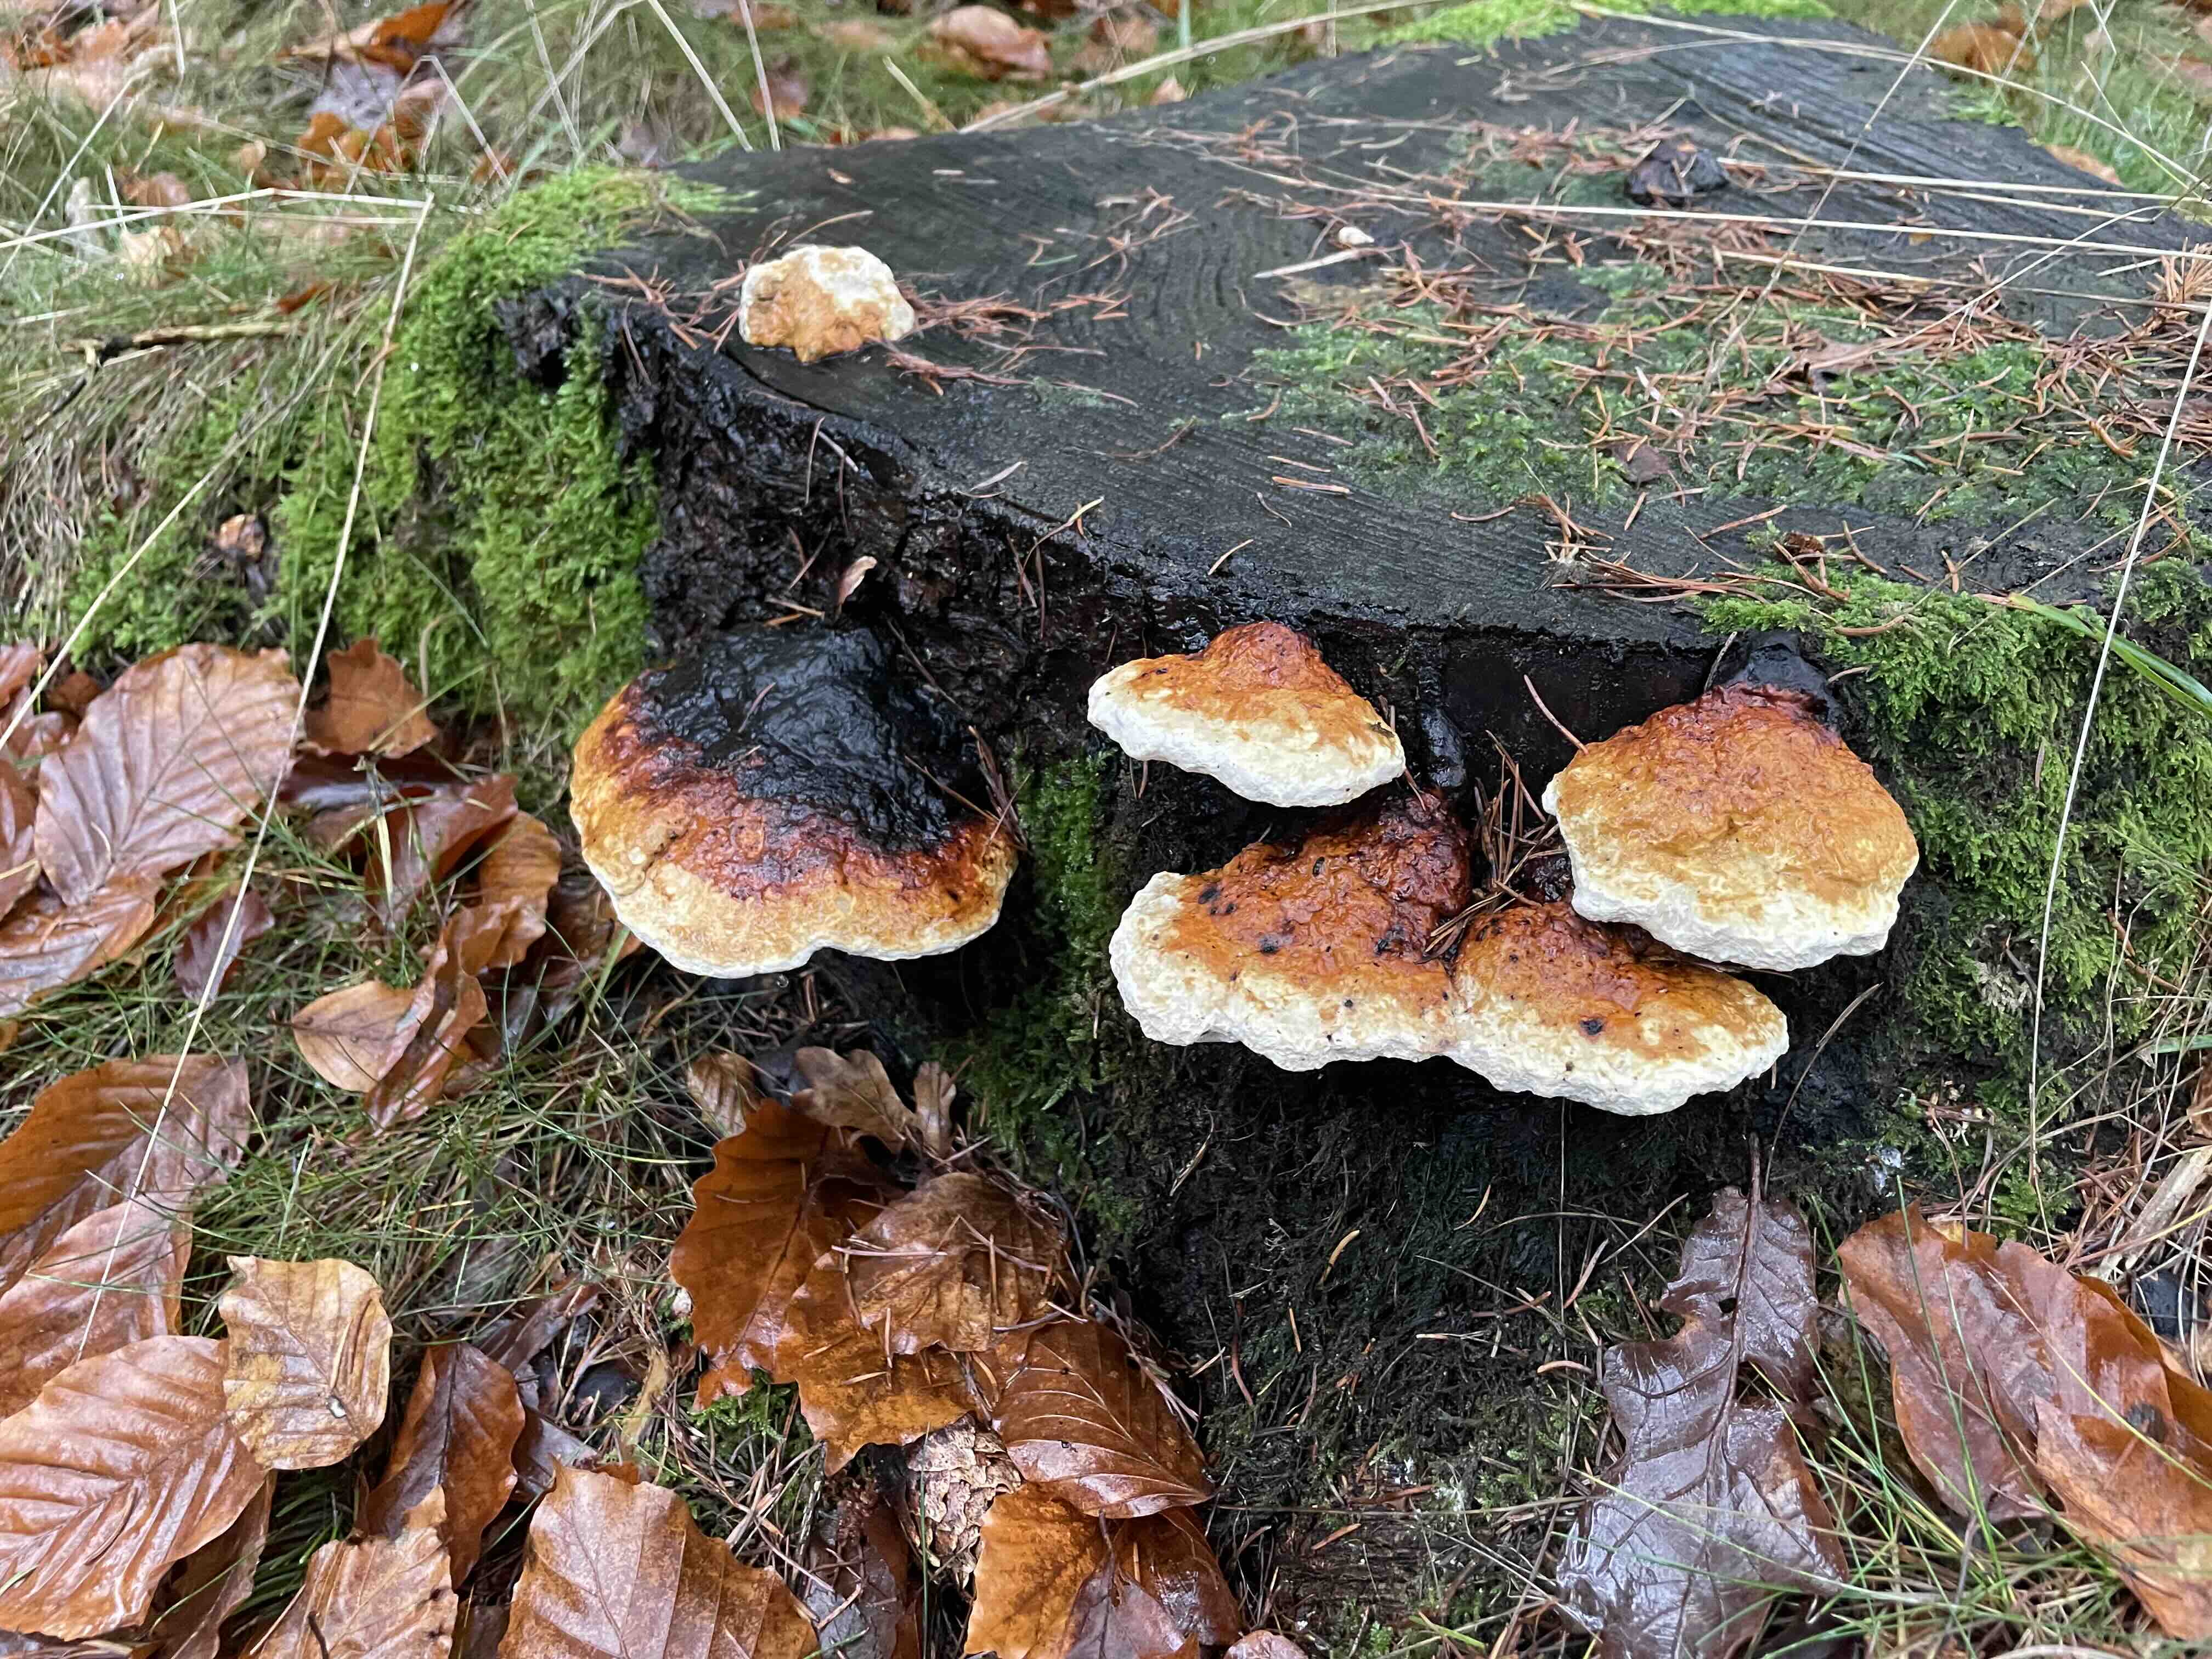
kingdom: Fungi
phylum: Basidiomycota
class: Agaricomycetes
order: Polyporales
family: Fomitopsidaceae
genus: Fomitopsis
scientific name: Fomitopsis pinicola
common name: randbæltet hovporesvamp
